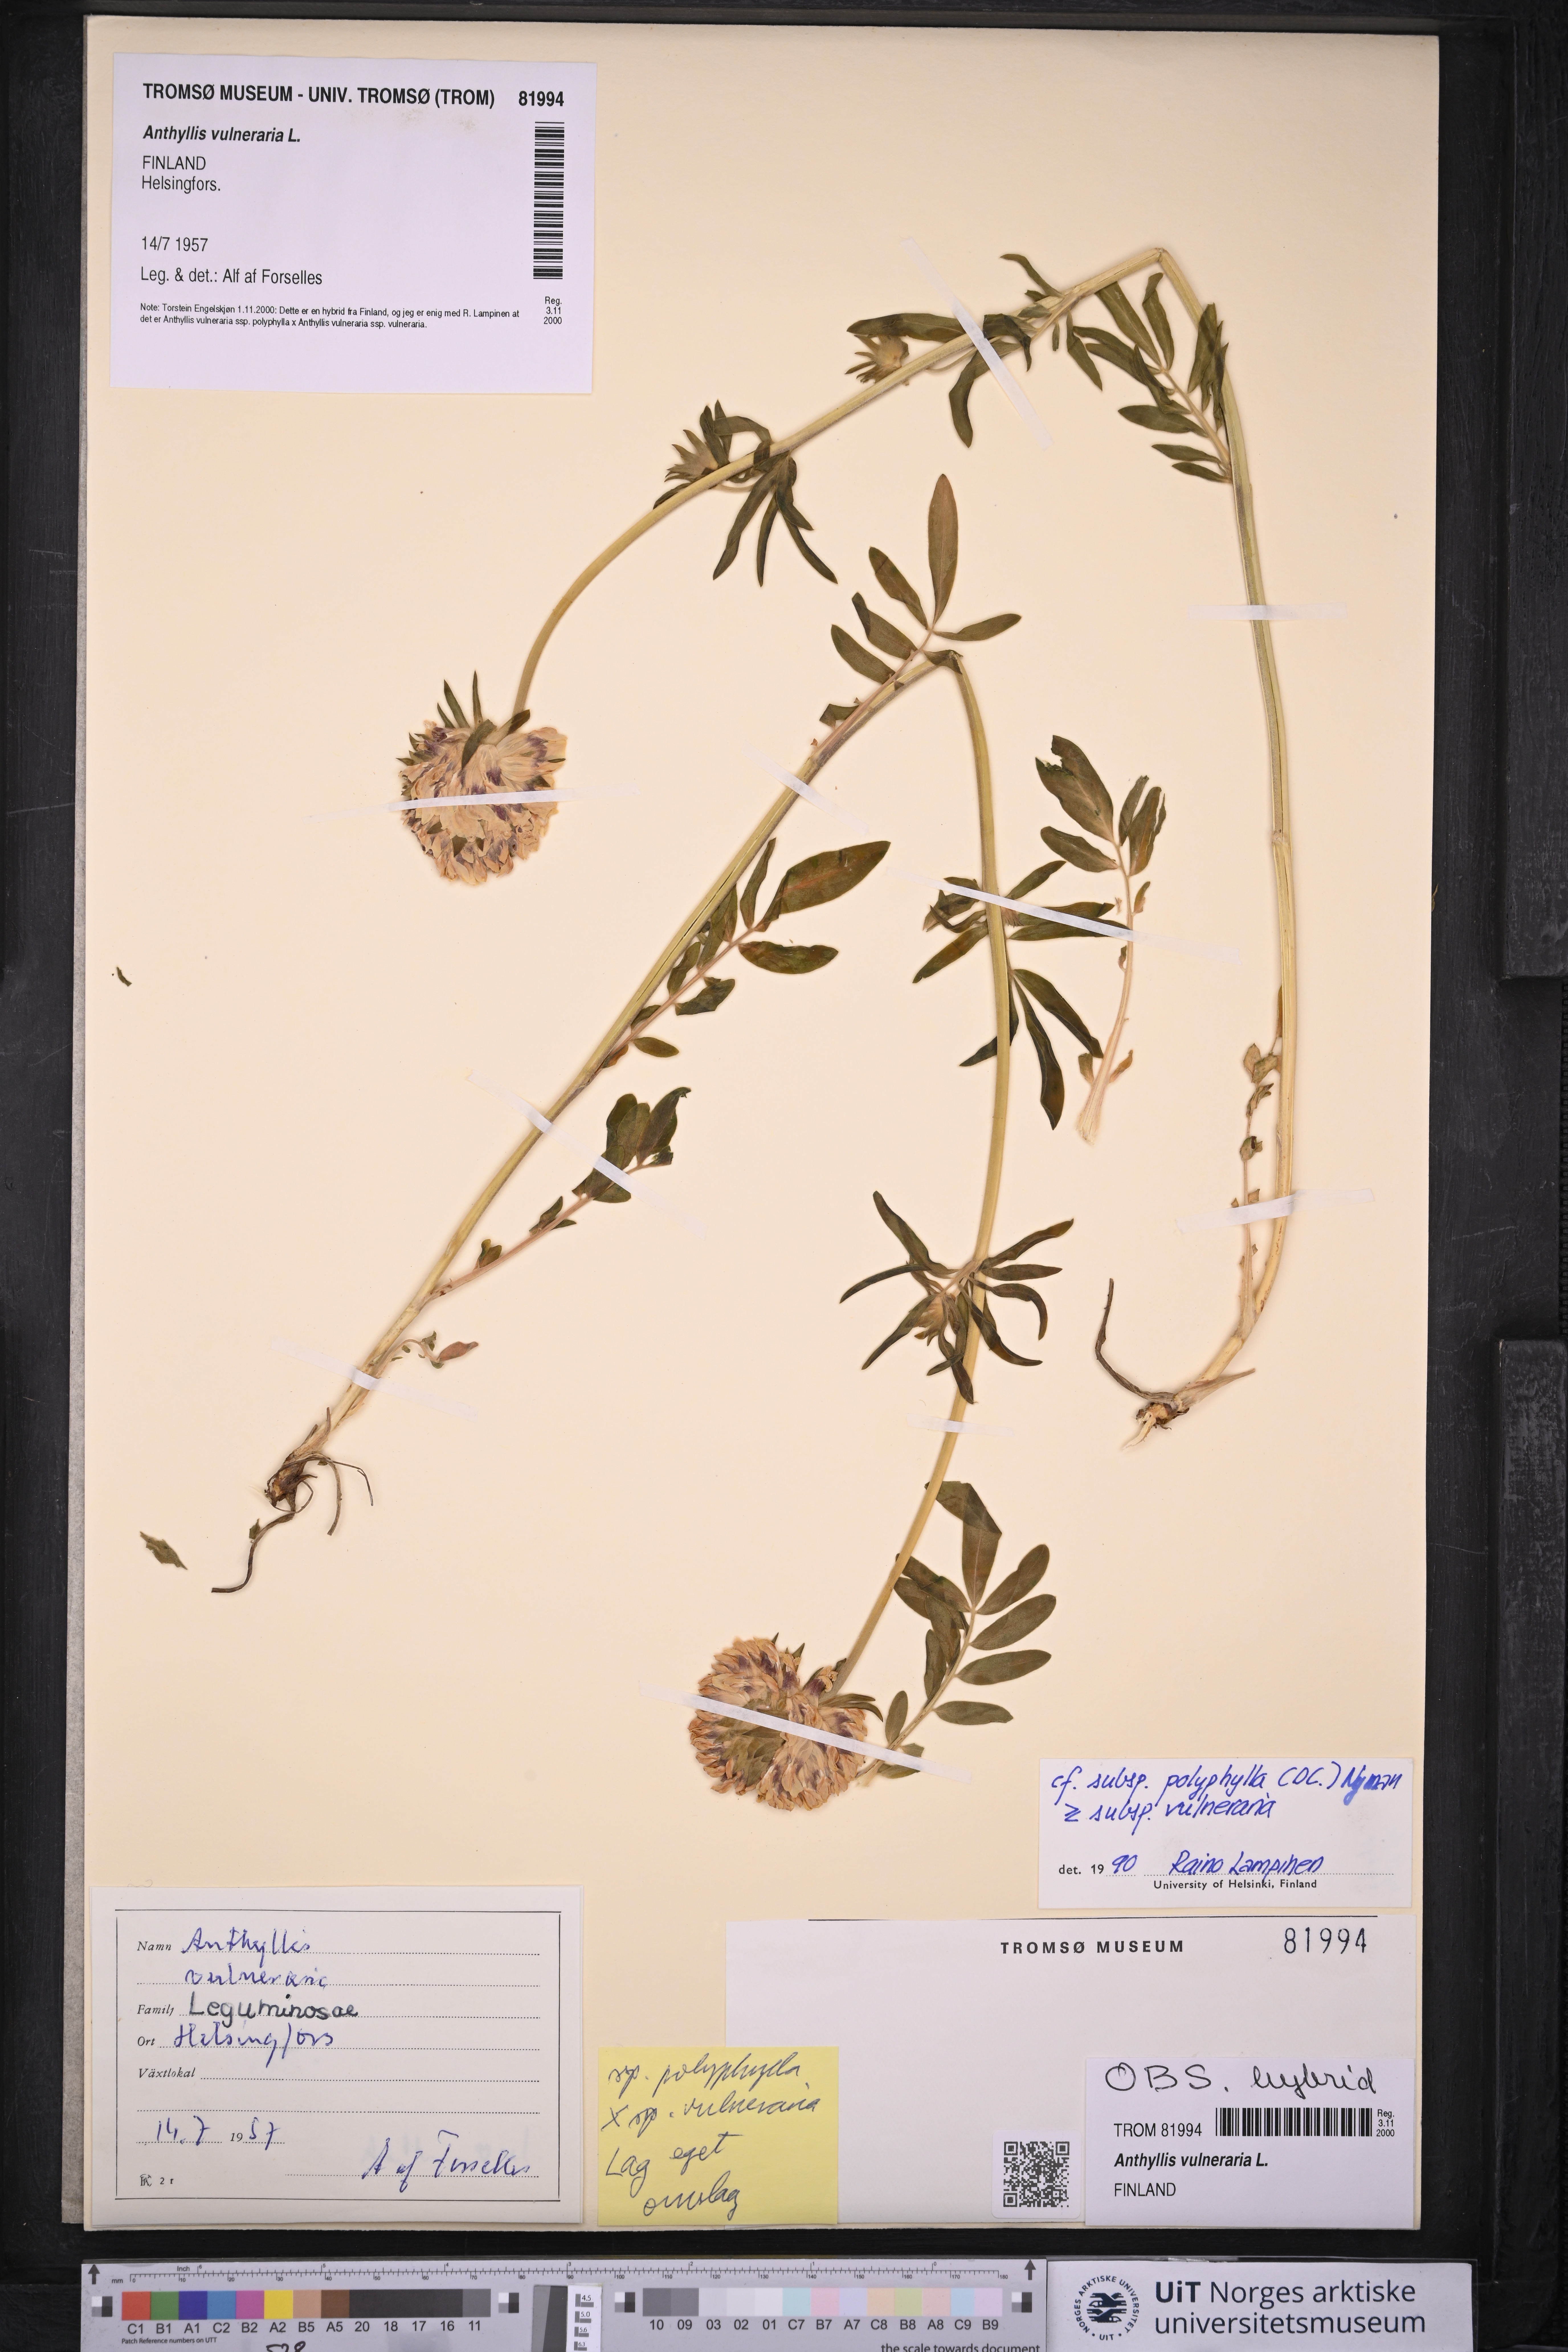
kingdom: Plantae
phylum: Tracheophyta
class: Magnoliopsida
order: Fabales
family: Fabaceae
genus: Anthyllis
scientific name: Anthyllis vulneraria
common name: Kidney vetch
